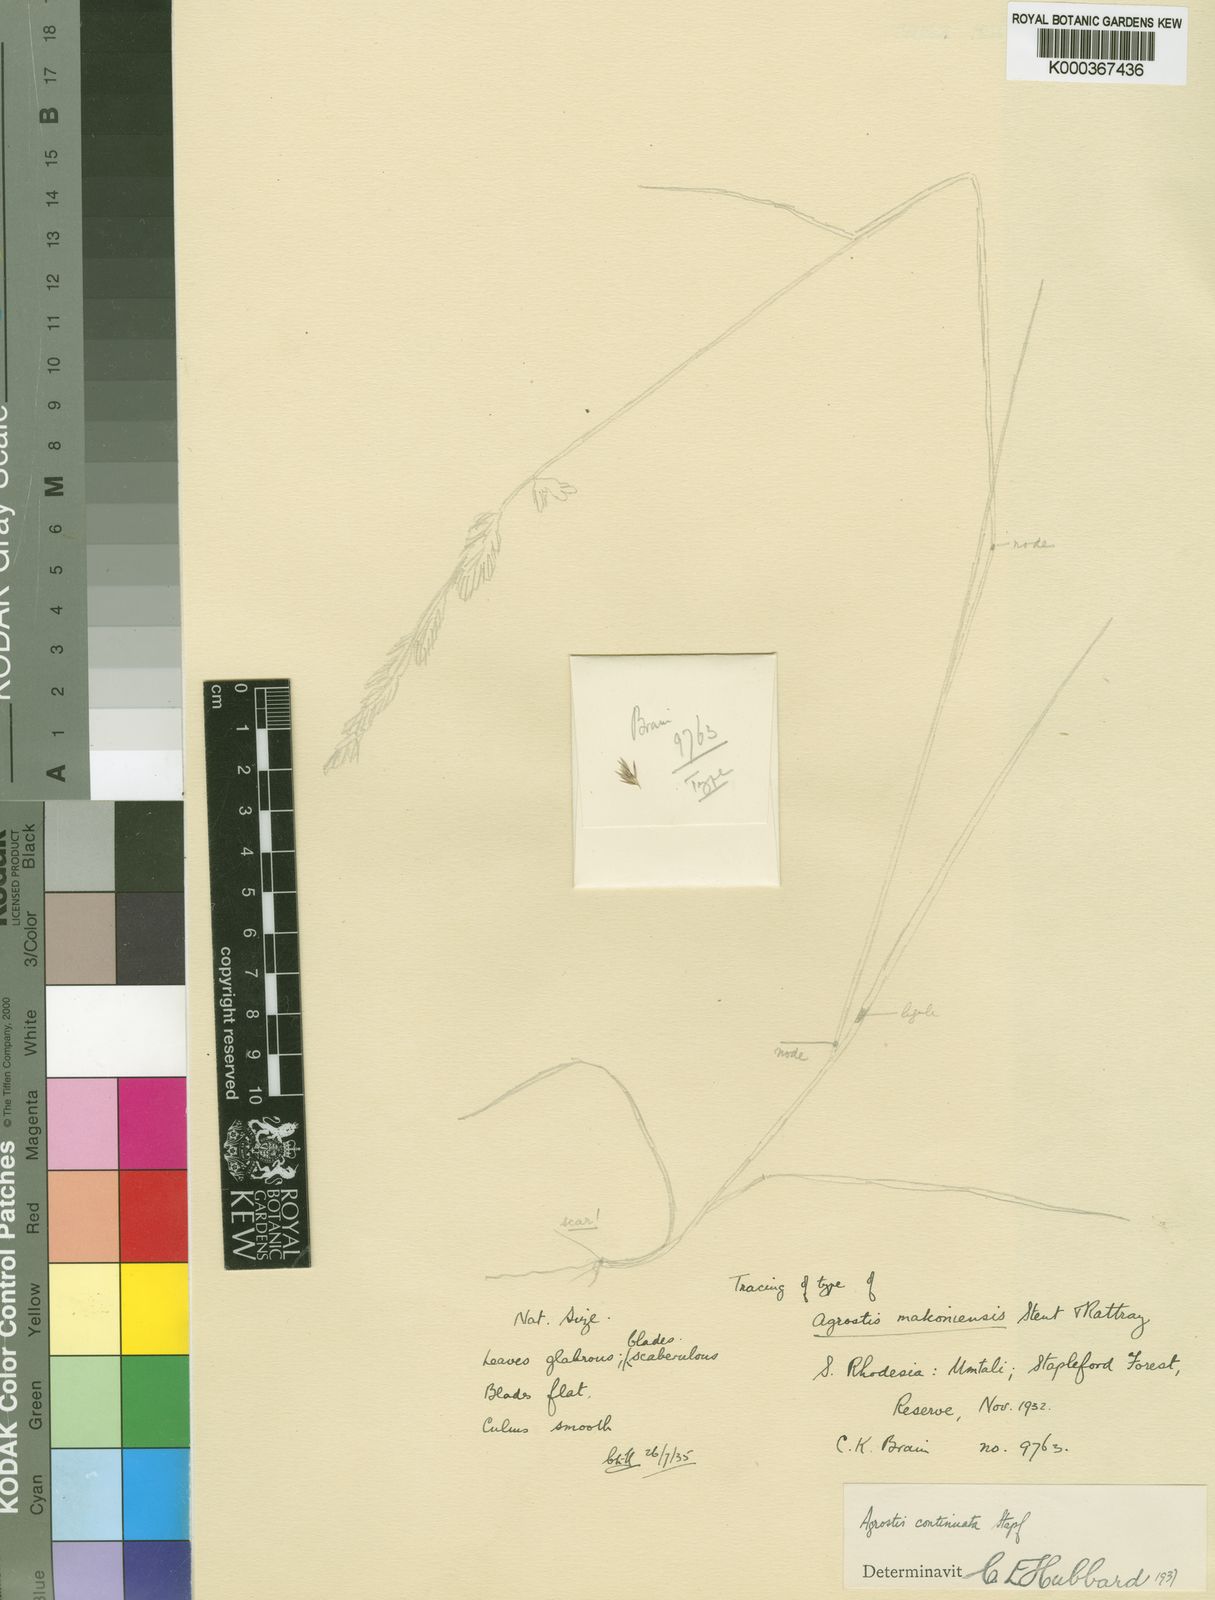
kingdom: Plantae
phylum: Tracheophyta
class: Liliopsida
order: Poales
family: Poaceae
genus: Agrostis
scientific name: Agrostis continuata
